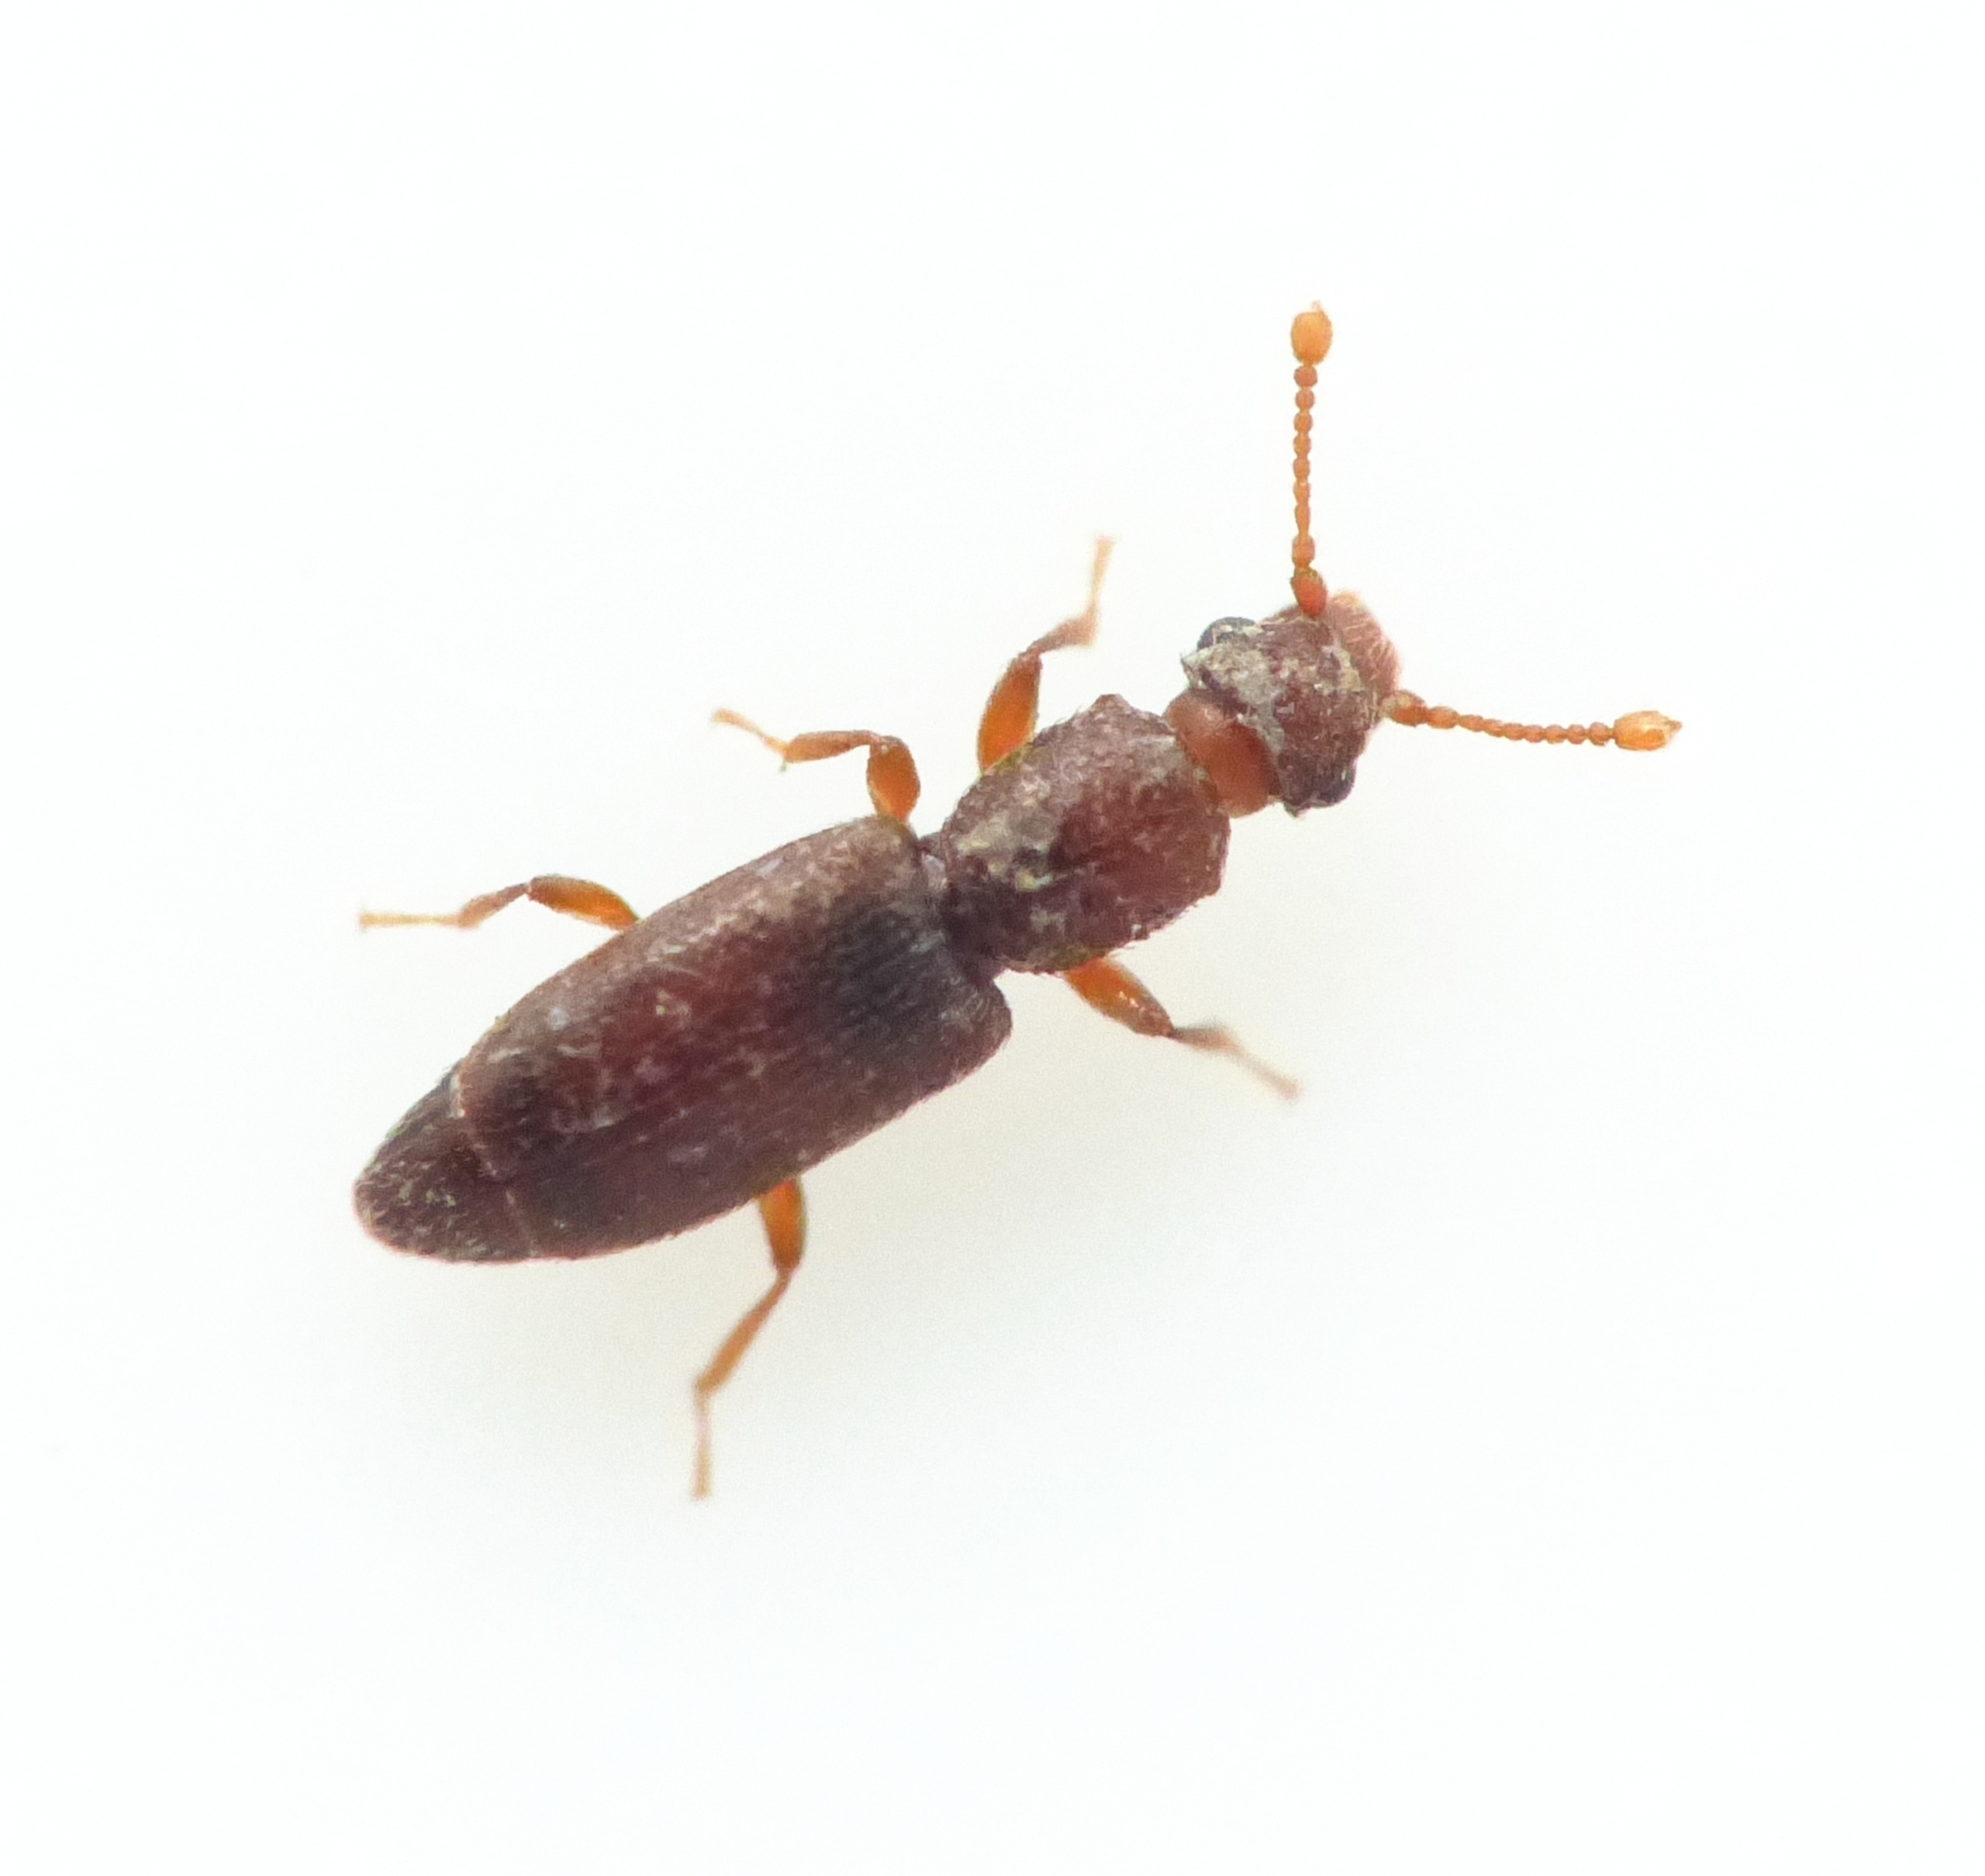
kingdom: Animalia
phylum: Arthropoda
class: Insecta
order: Coleoptera
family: Monotomidae
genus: Monotoma
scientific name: Monotoma longicollis
